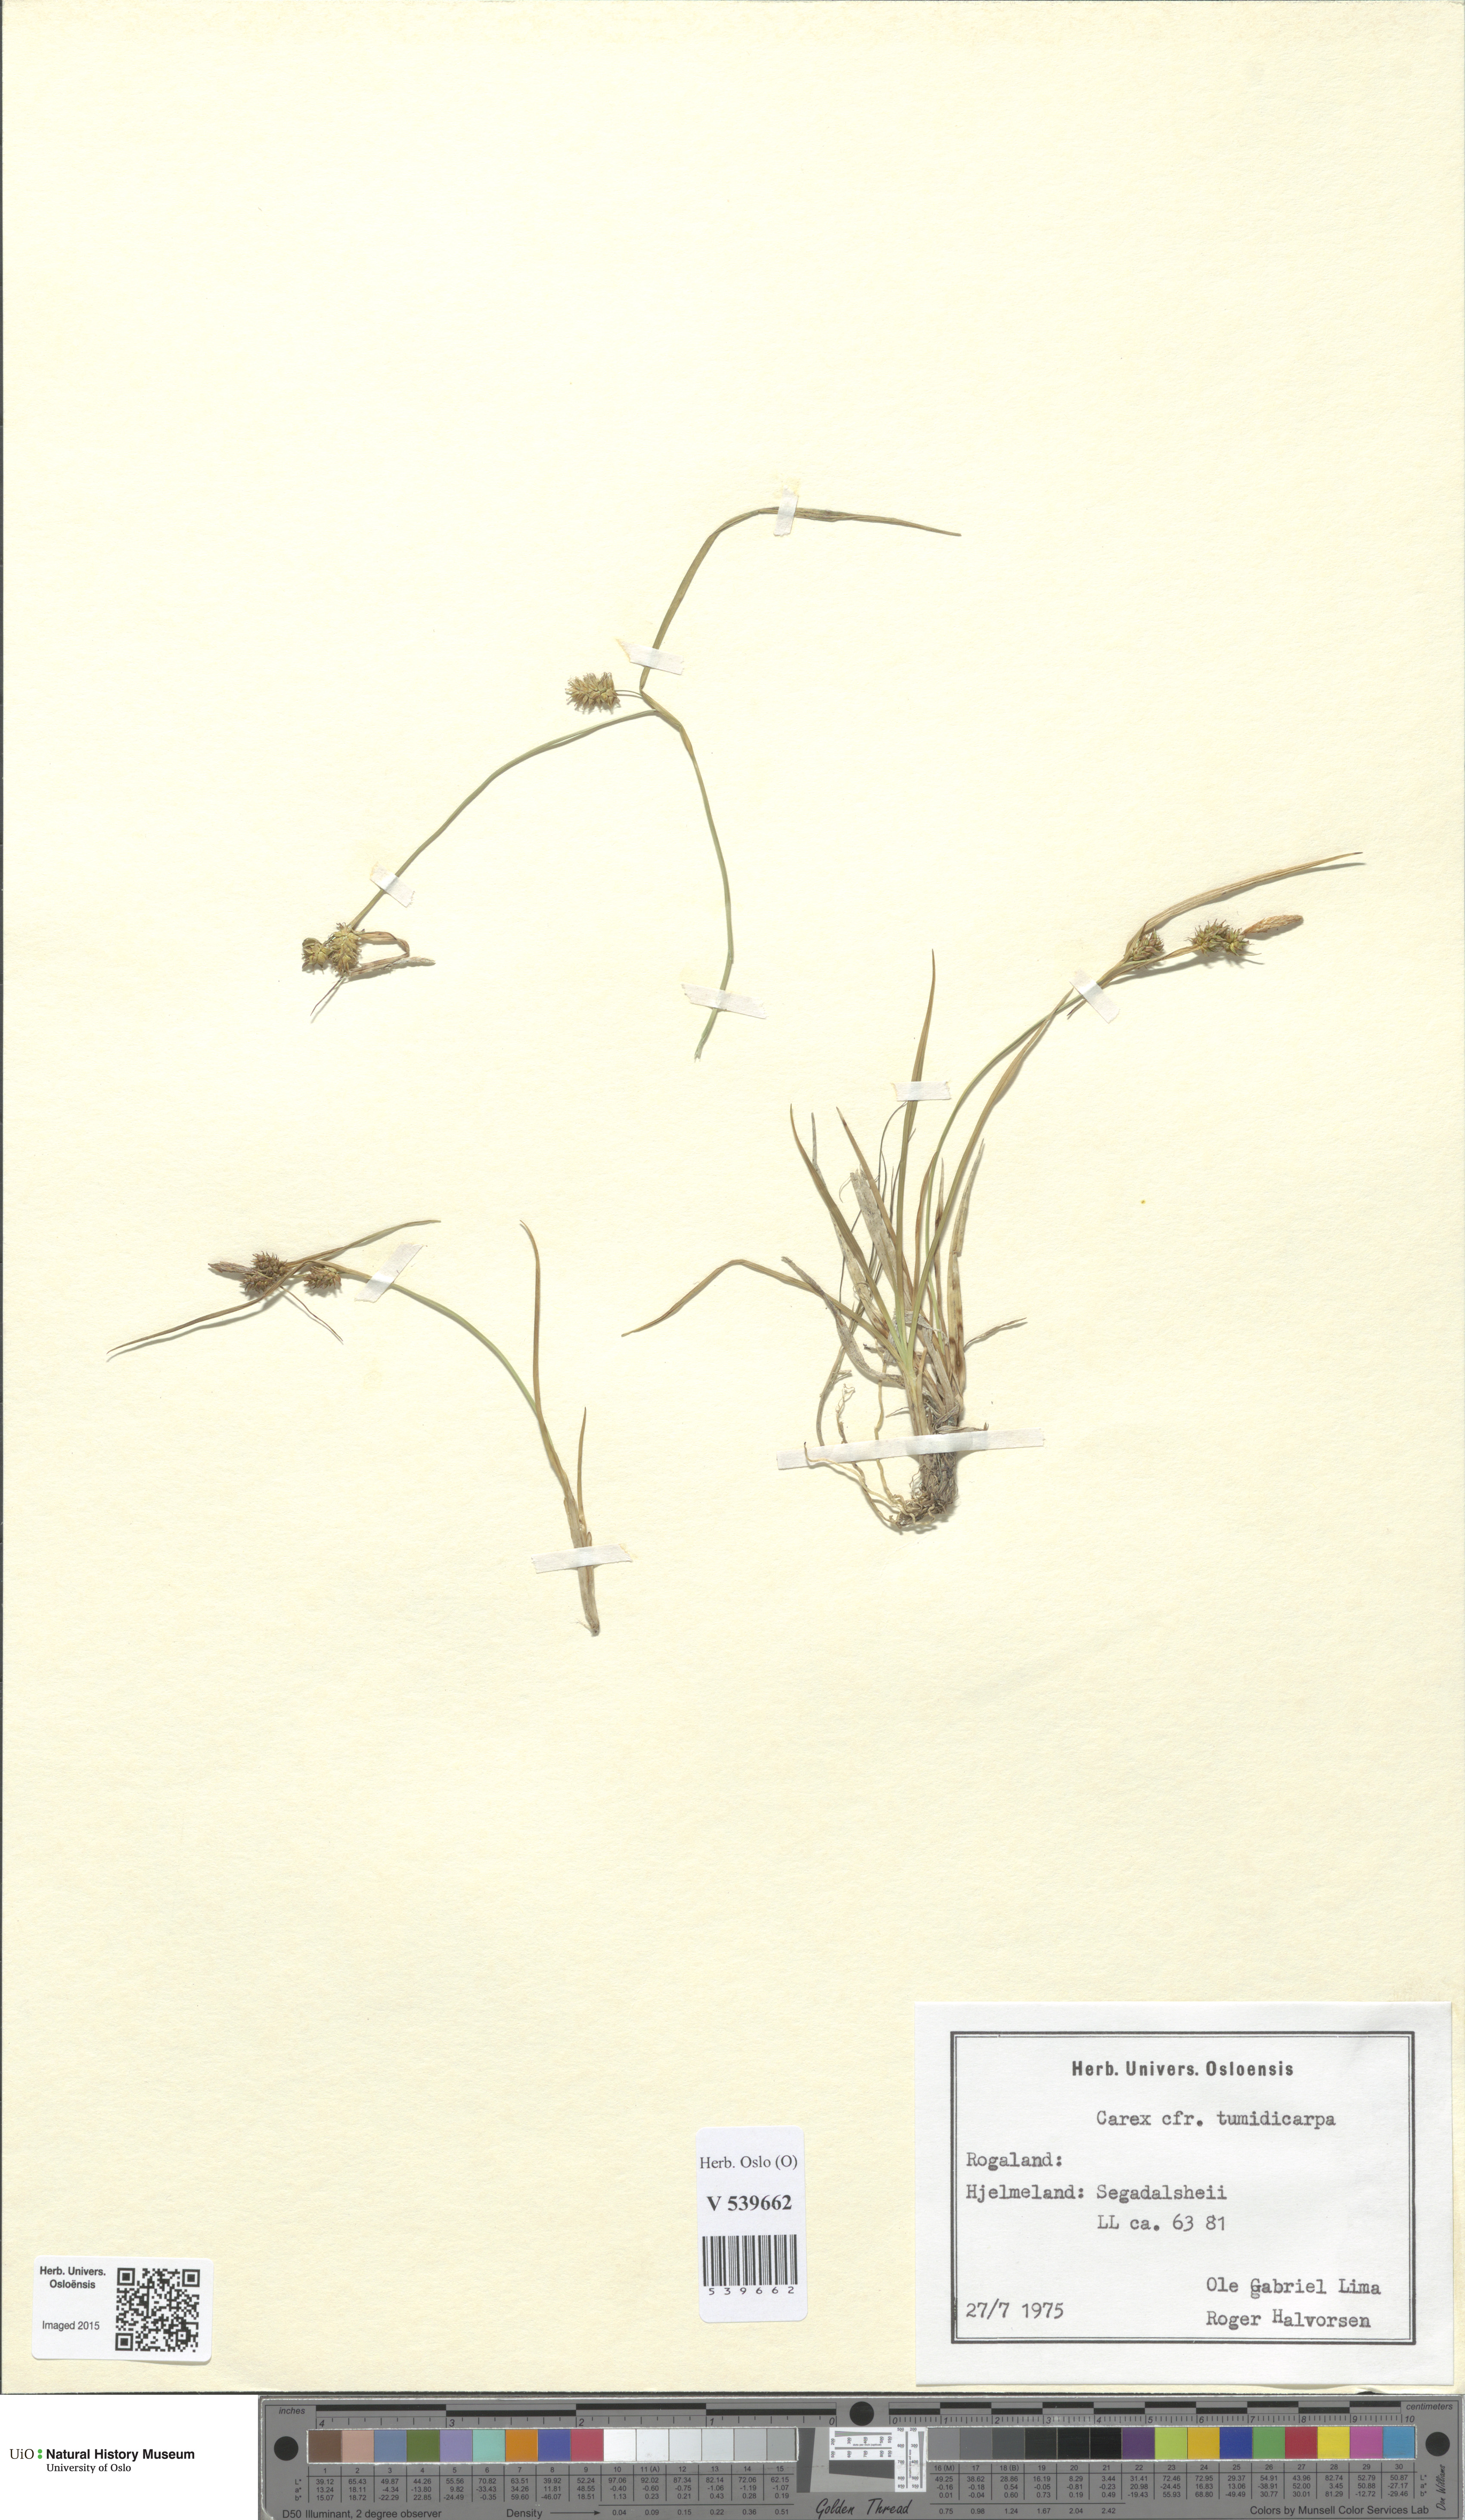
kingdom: Plantae
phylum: Tracheophyta
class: Liliopsida
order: Poales
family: Cyperaceae
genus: Carex
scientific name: Carex demissa
